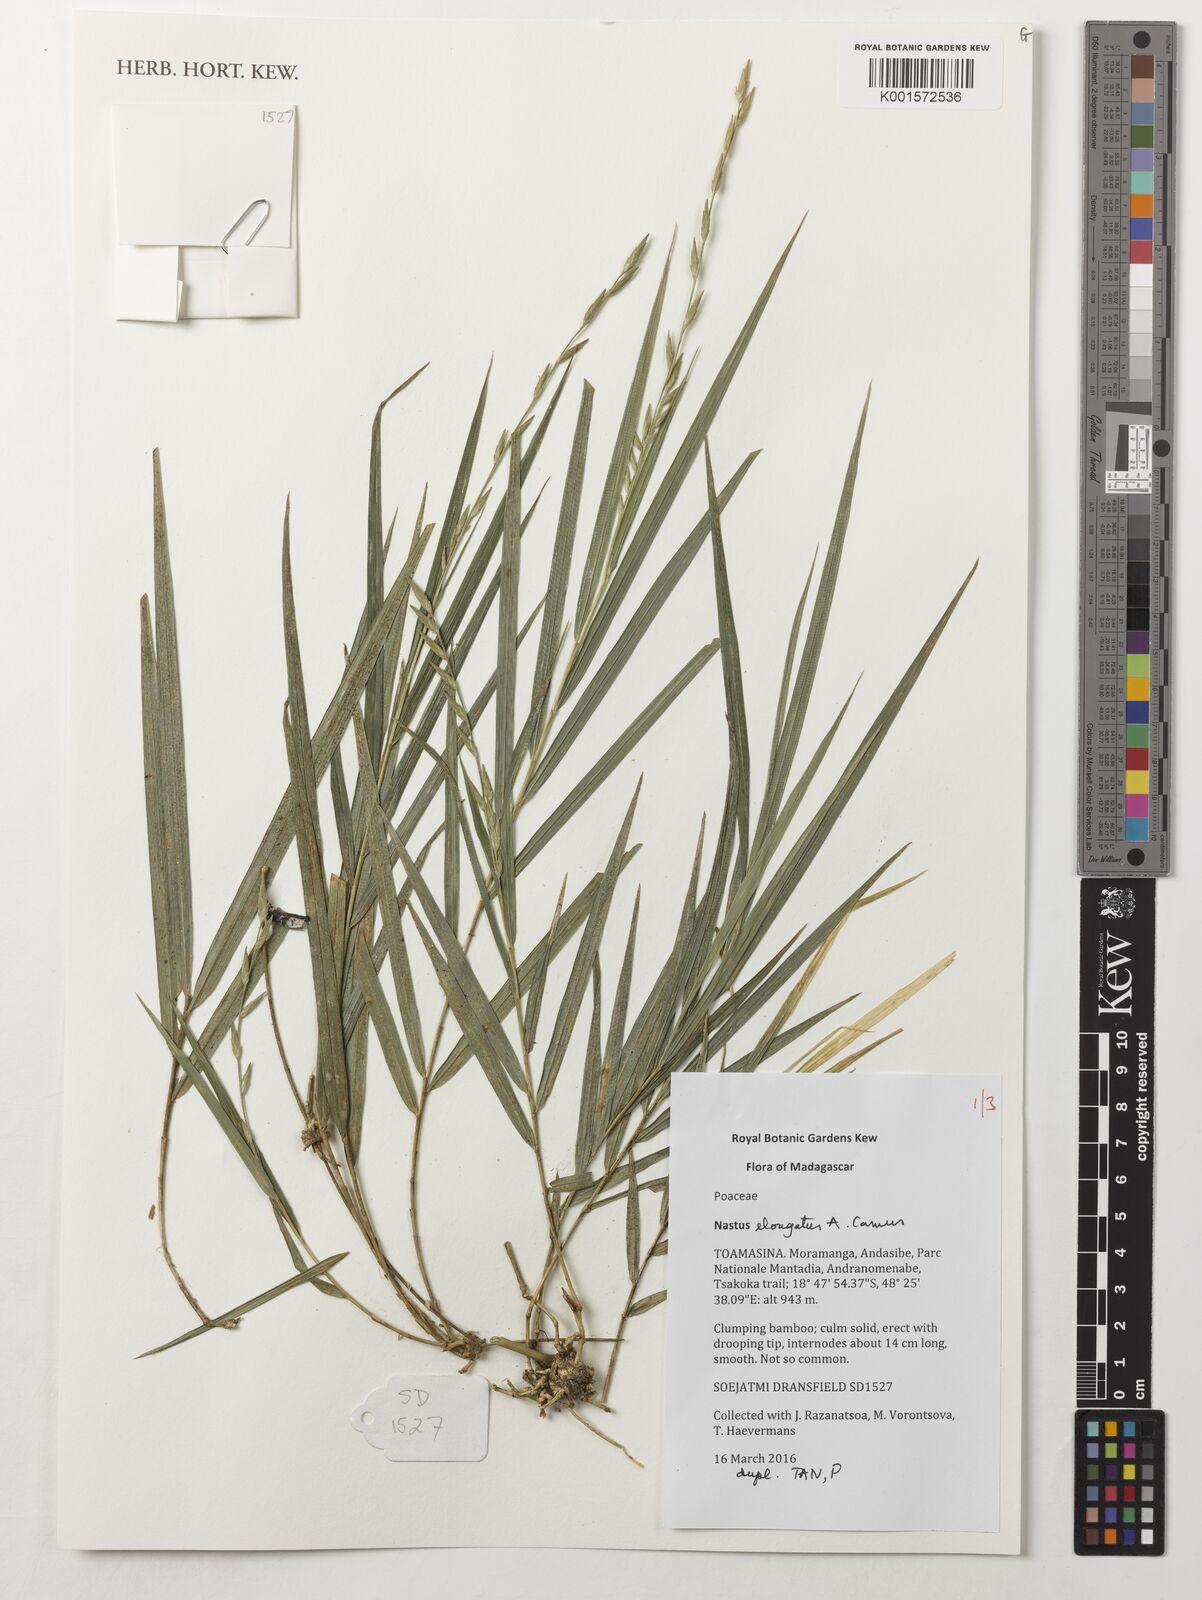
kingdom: Plantae
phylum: Tracheophyta
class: Liliopsida
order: Poales
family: Poaceae
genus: Nastus
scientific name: Nastus elongatus
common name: Spider bamboo
